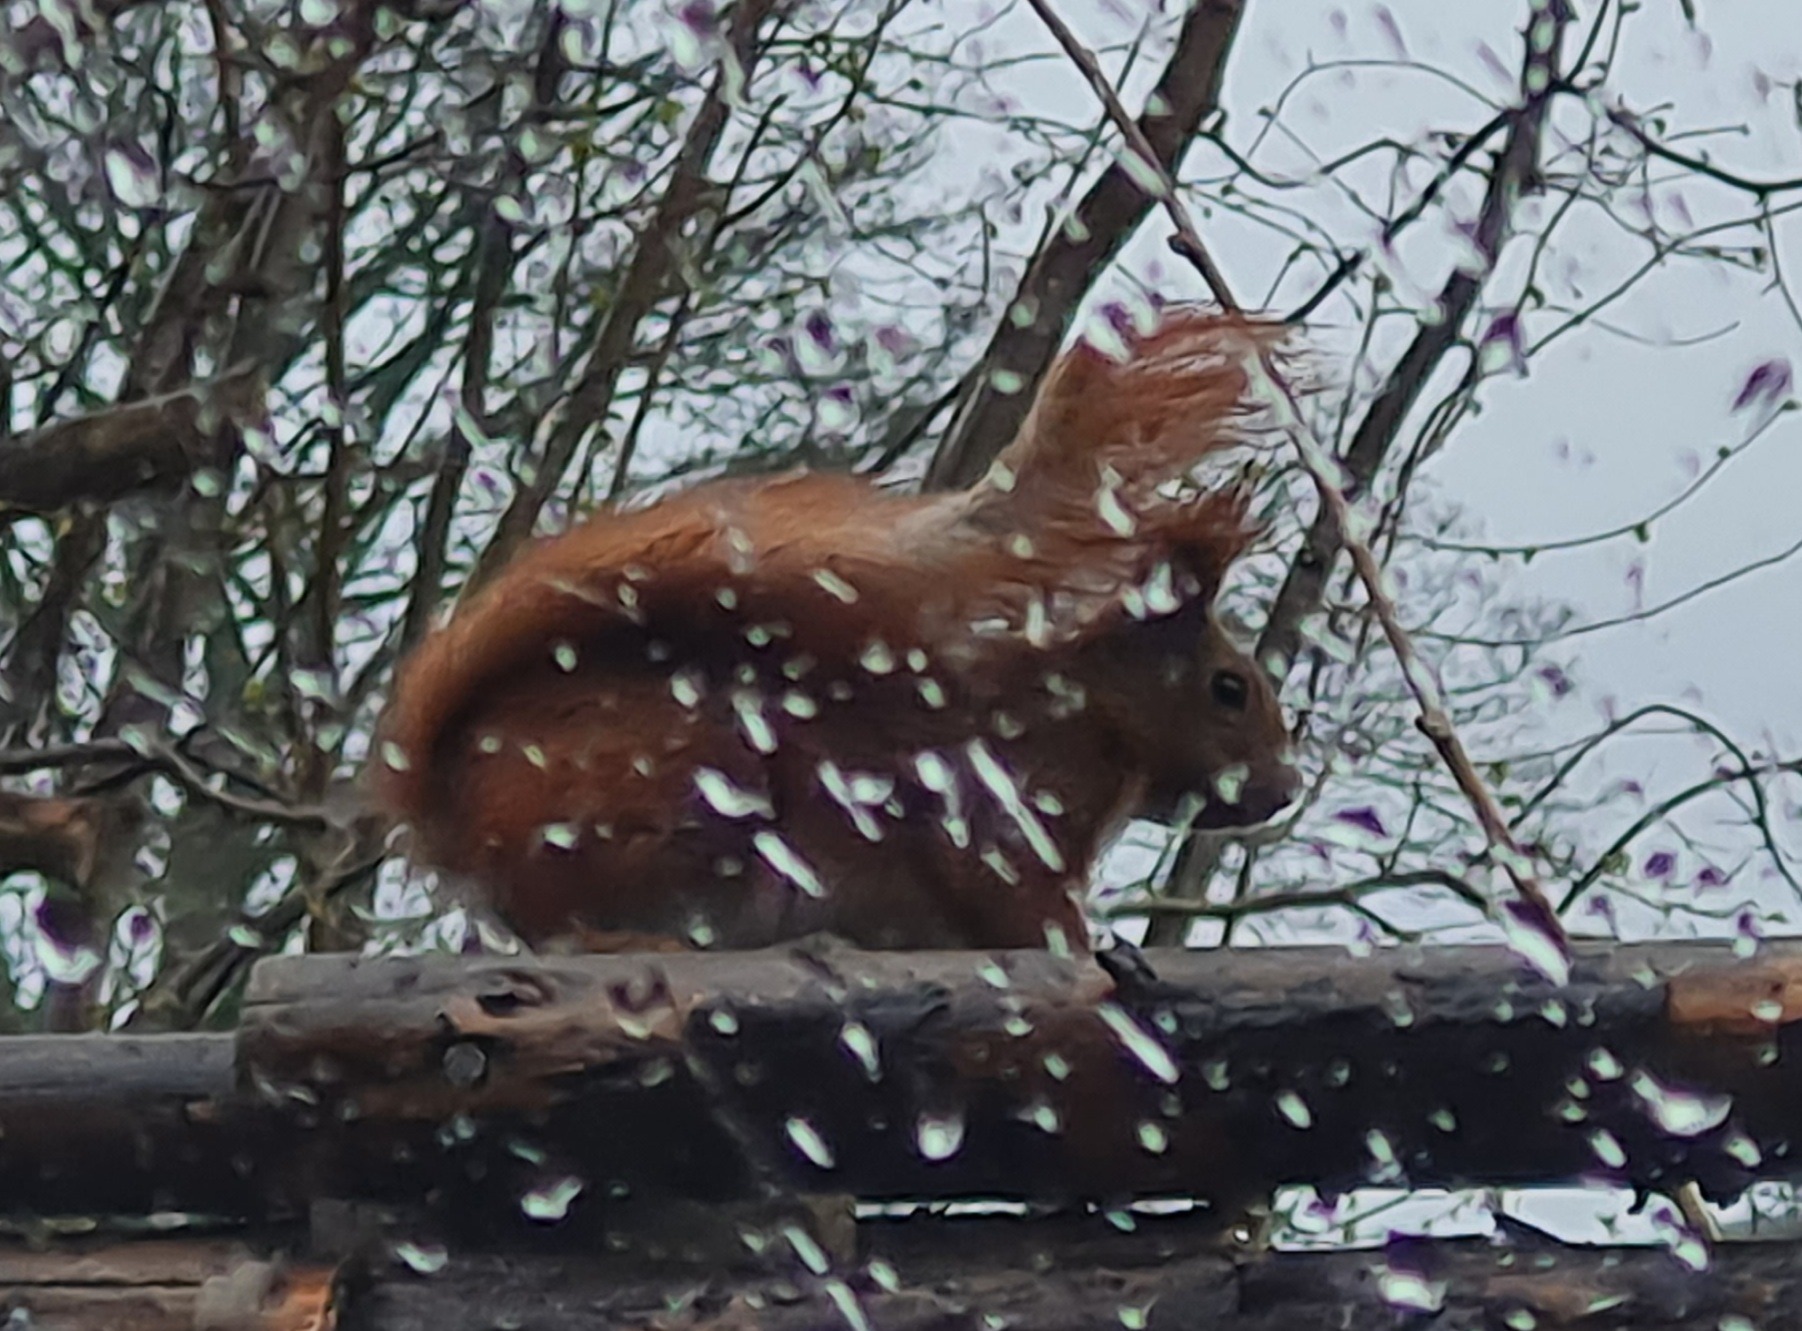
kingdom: Animalia
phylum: Chordata
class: Mammalia
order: Rodentia
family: Sciuridae
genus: Sciurus
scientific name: Sciurus vulgaris
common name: Egern
